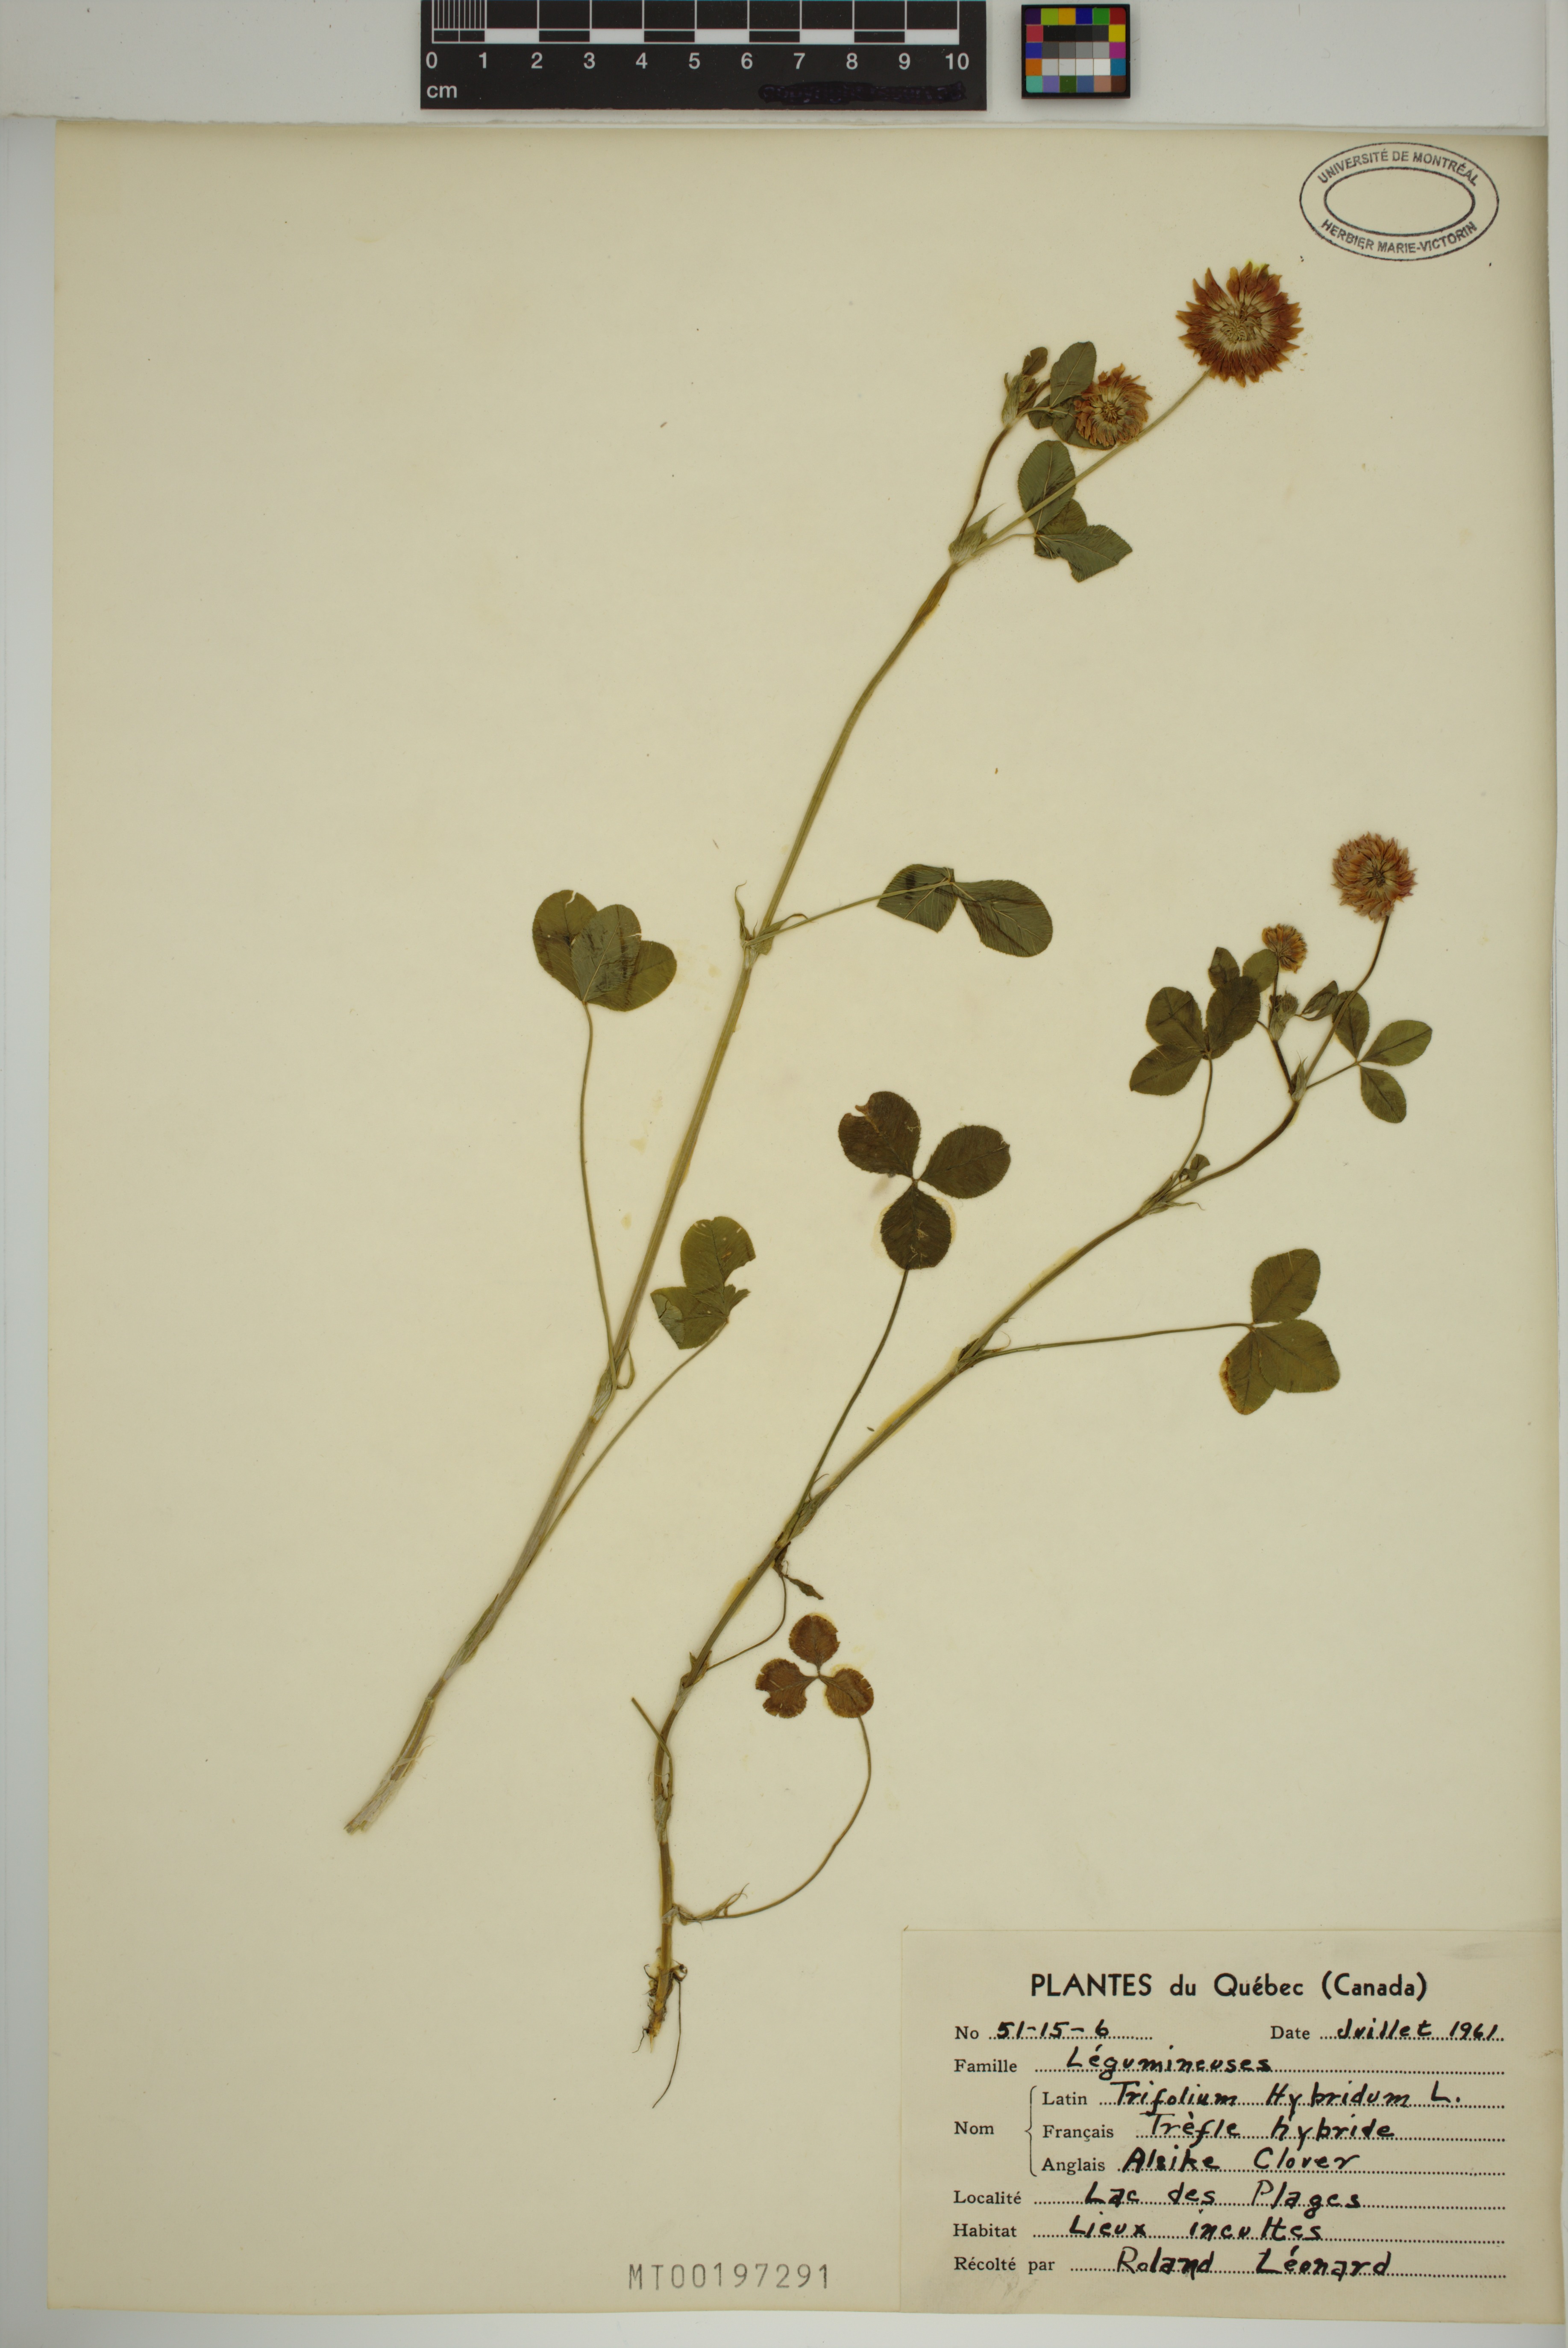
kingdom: Plantae
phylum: Tracheophyta
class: Magnoliopsida
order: Fabales
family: Fabaceae
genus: Trifolium
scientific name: Trifolium hybridum
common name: Alsike clover
